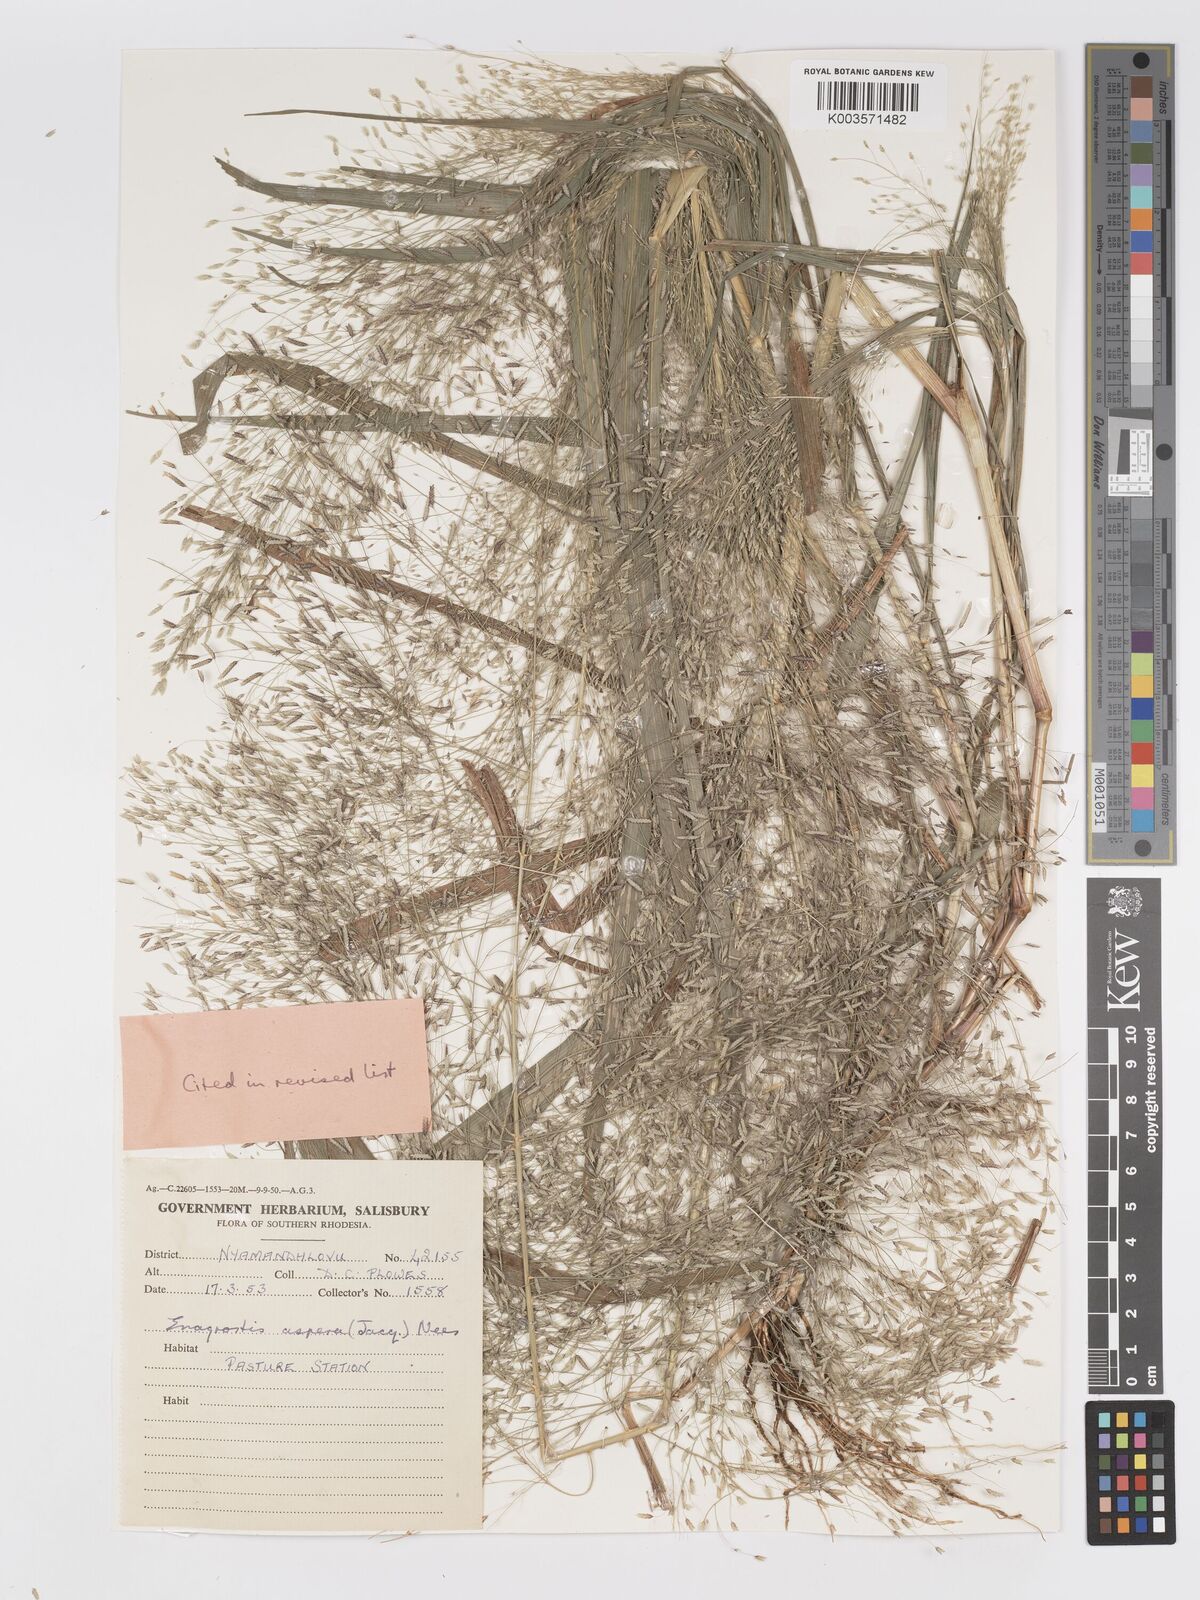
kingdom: Plantae
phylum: Tracheophyta
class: Liliopsida
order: Poales
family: Poaceae
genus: Eragrostis
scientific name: Eragrostis aspera
